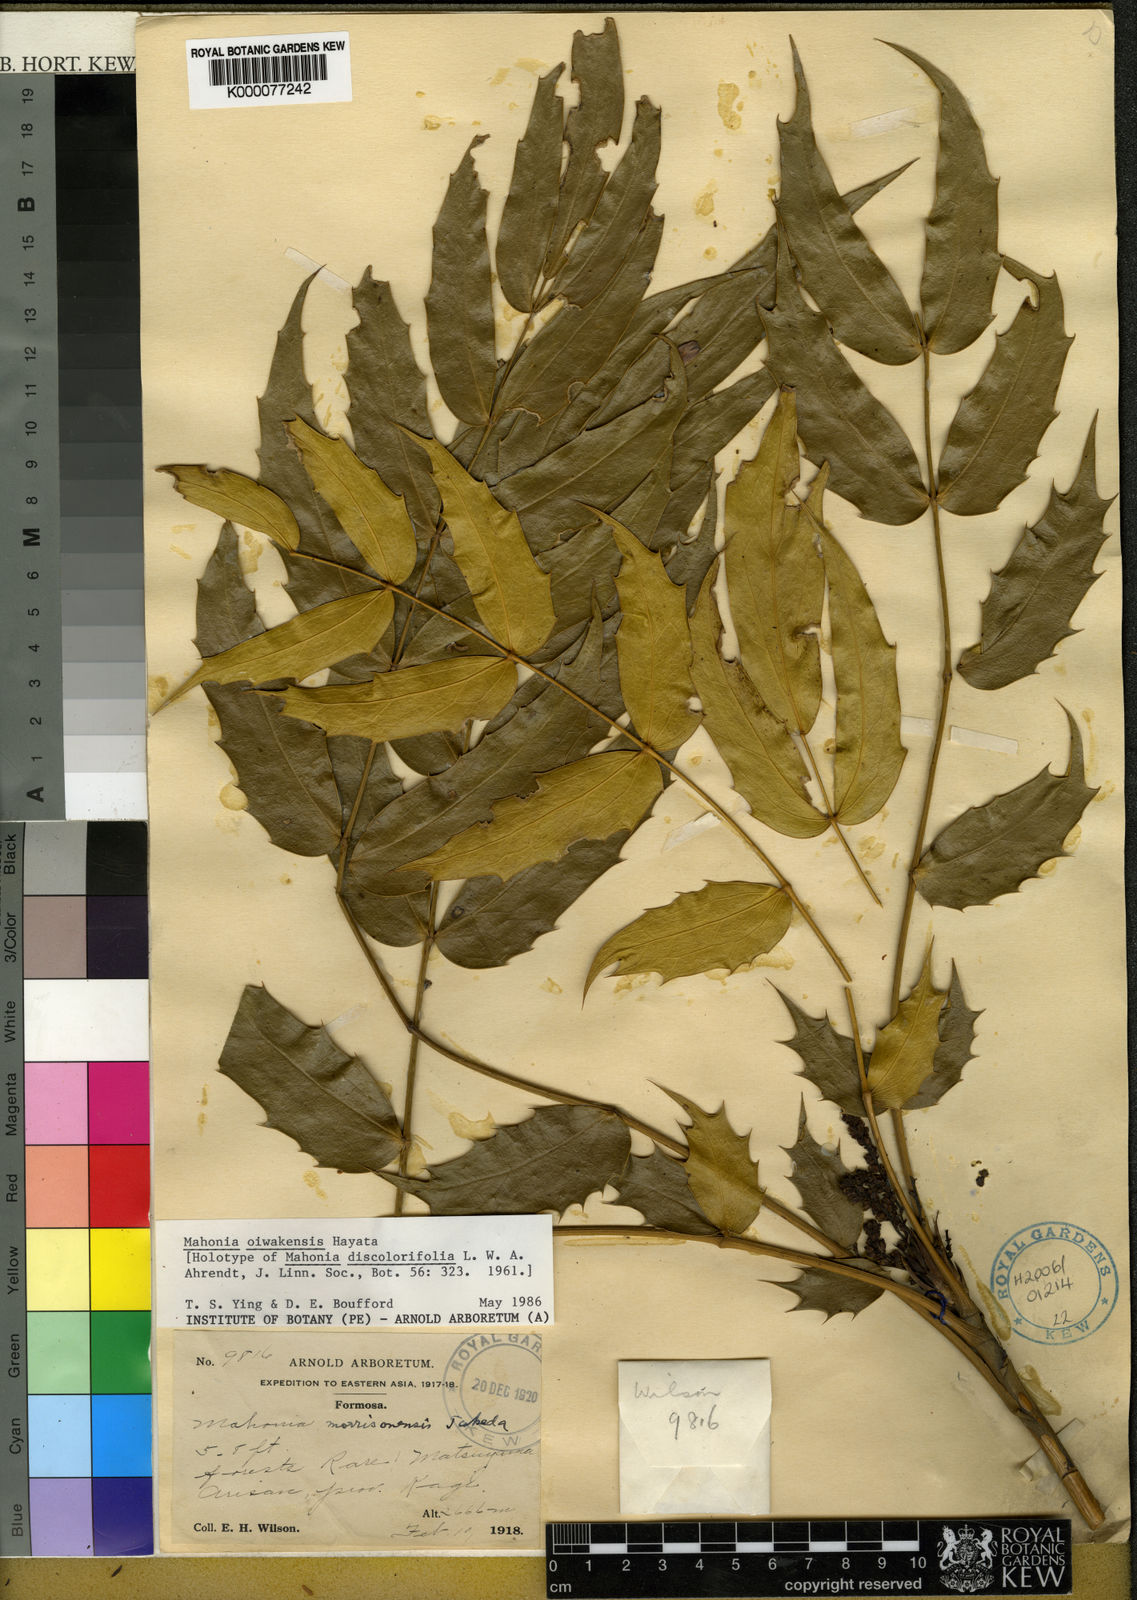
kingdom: Plantae
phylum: Tracheophyta
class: Magnoliopsida
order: Ranunculales
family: Berberidaceae
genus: Mahonia
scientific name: Mahonia oiwakensis
